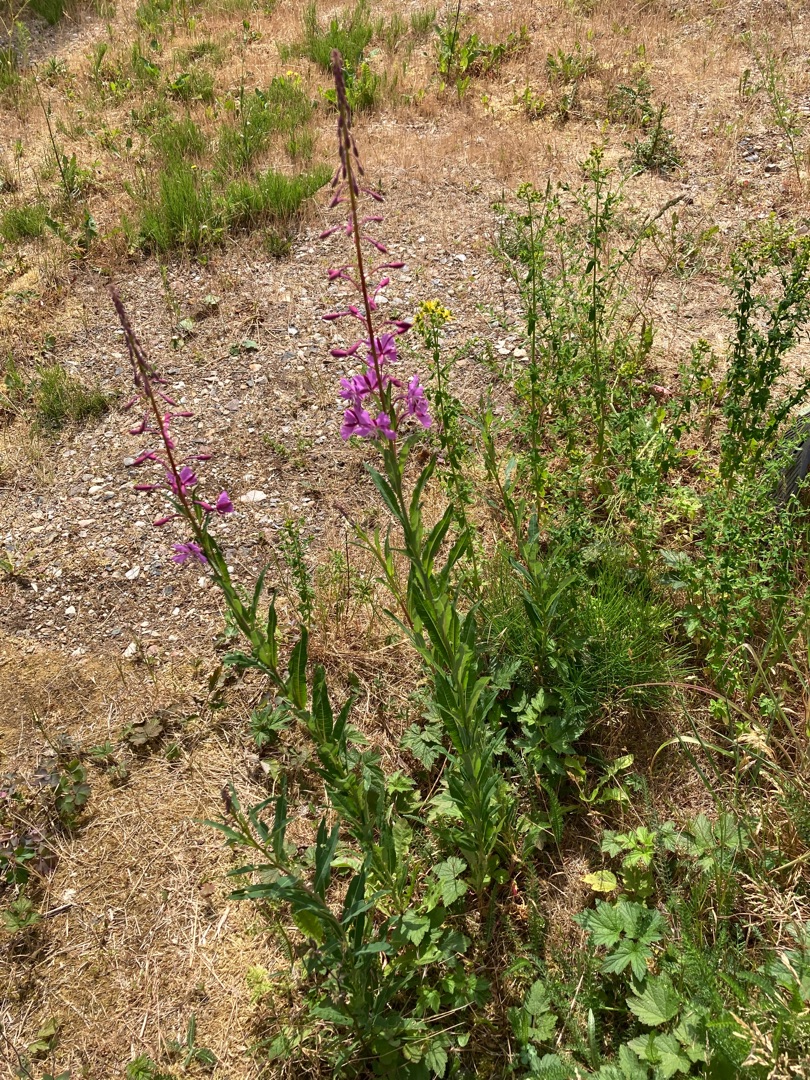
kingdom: Plantae
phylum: Tracheophyta
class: Magnoliopsida
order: Myrtales
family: Onagraceae
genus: Chamaenerion
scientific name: Chamaenerion angustifolium
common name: Gederams
